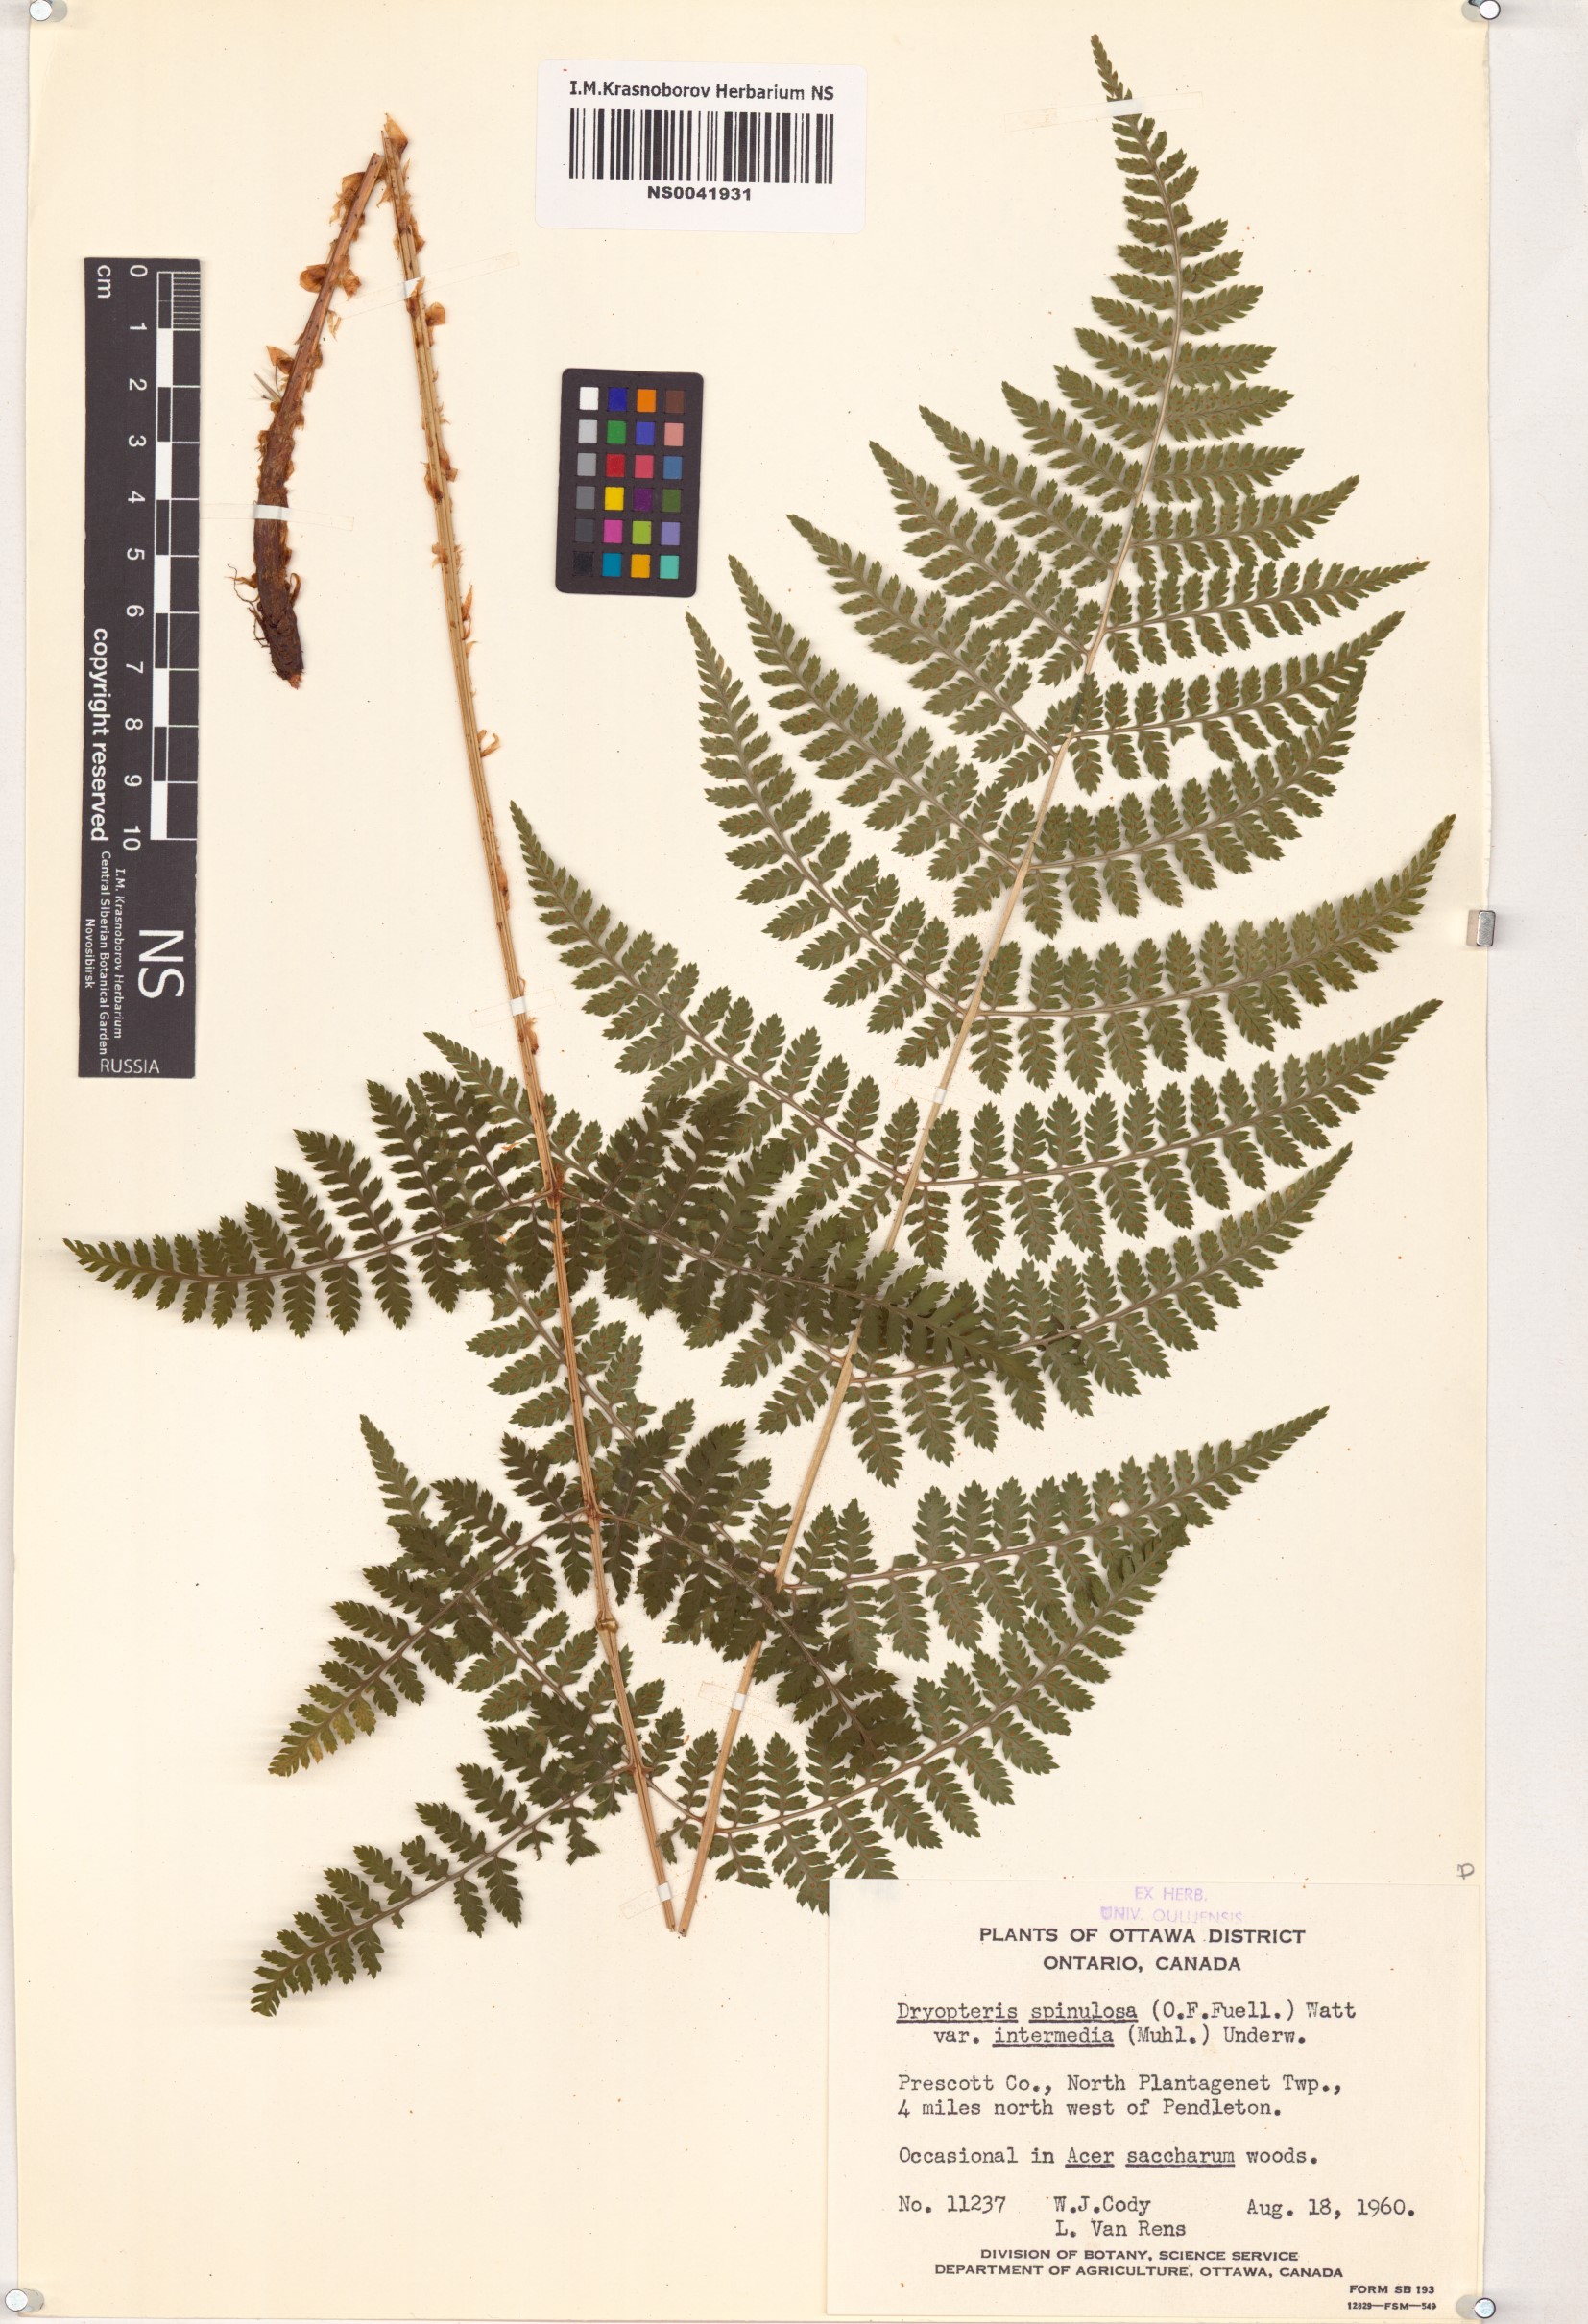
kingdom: Plantae
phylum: Tracheophyta
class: Polypodiopsida
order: Polypodiales
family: Dryopteridaceae
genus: Dryopteris
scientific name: Dryopteris intermedia
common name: Evergreen wood fern
